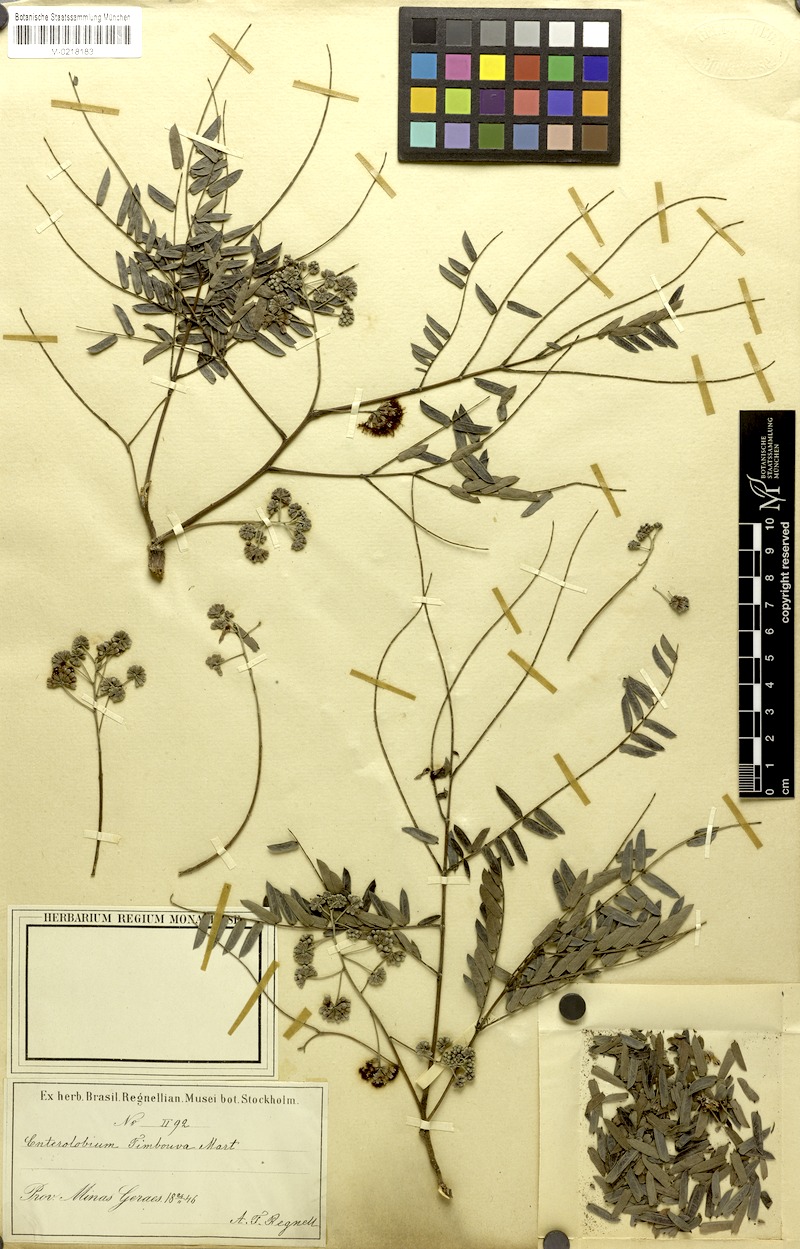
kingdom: Plantae
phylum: Tracheophyta
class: Magnoliopsida
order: Fabales
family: Fabaceae
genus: Enterolobium
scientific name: Enterolobium contortisiliquum
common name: Pacara earpod tree
